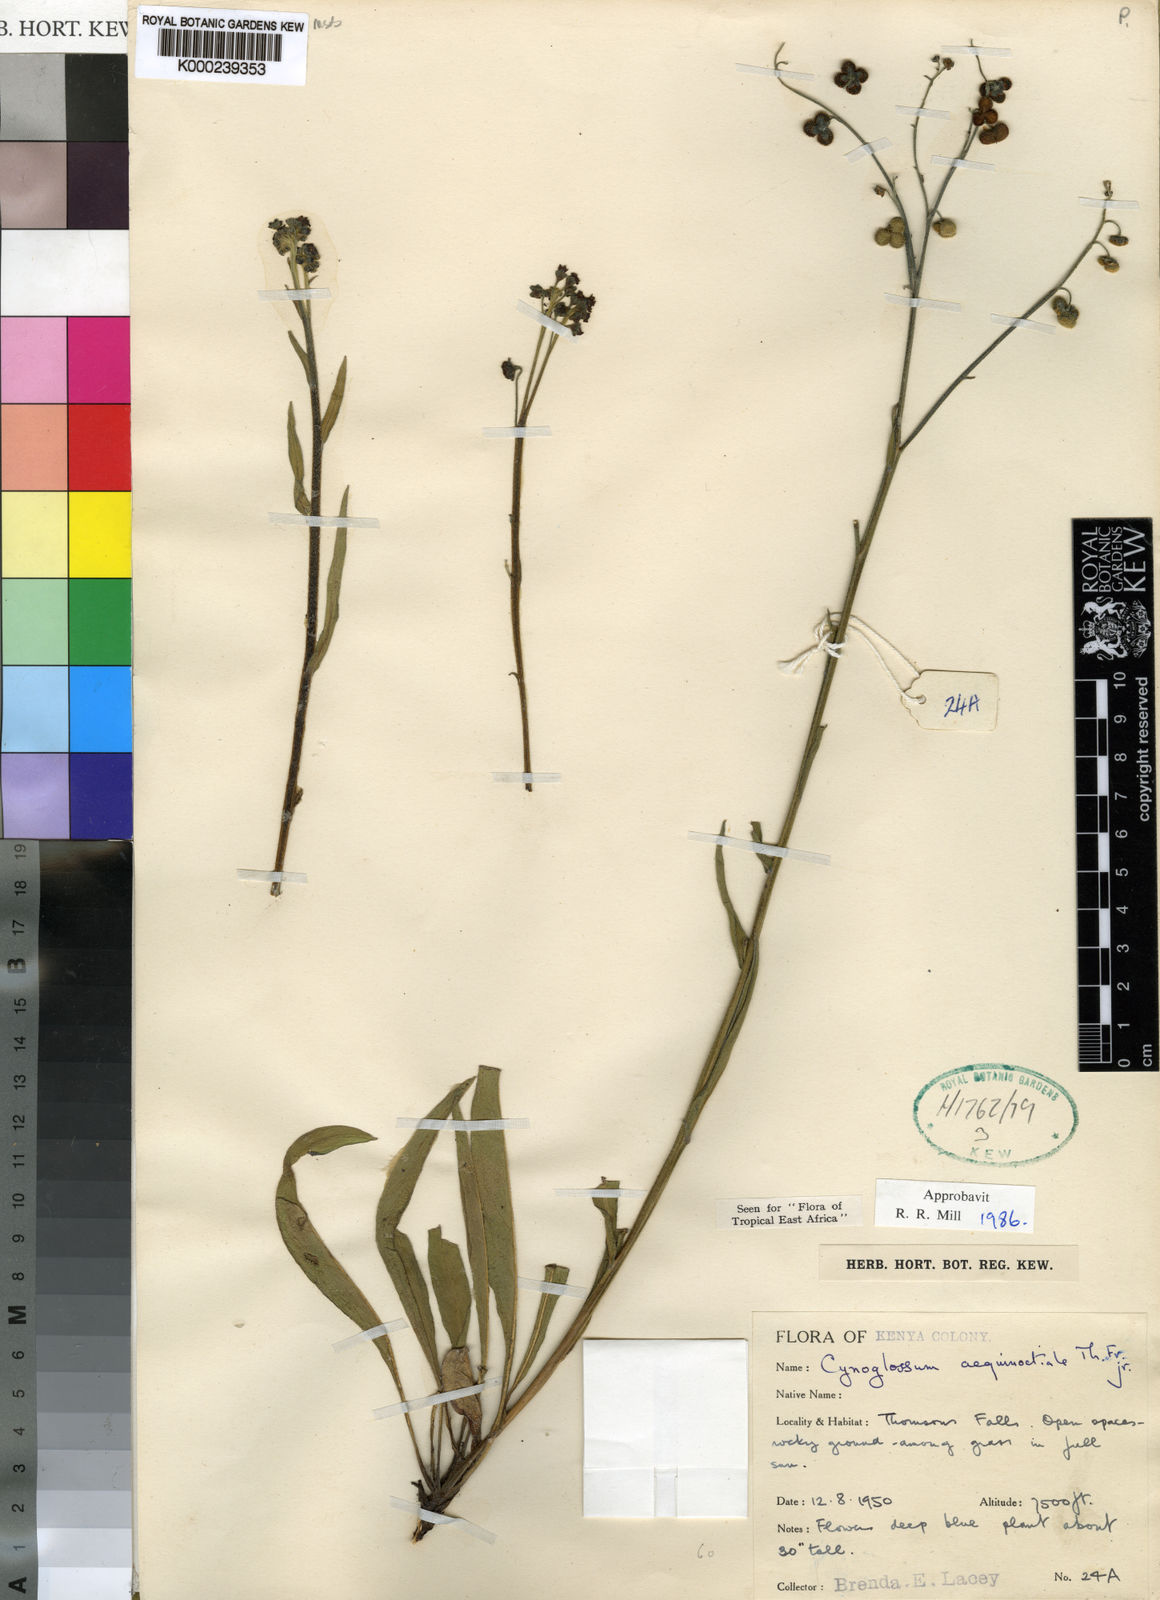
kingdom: Plantae
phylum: Tracheophyta
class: Magnoliopsida
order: Boraginales
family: Boraginaceae
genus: Cynoglossum
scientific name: Cynoglossum aequinoctiale
